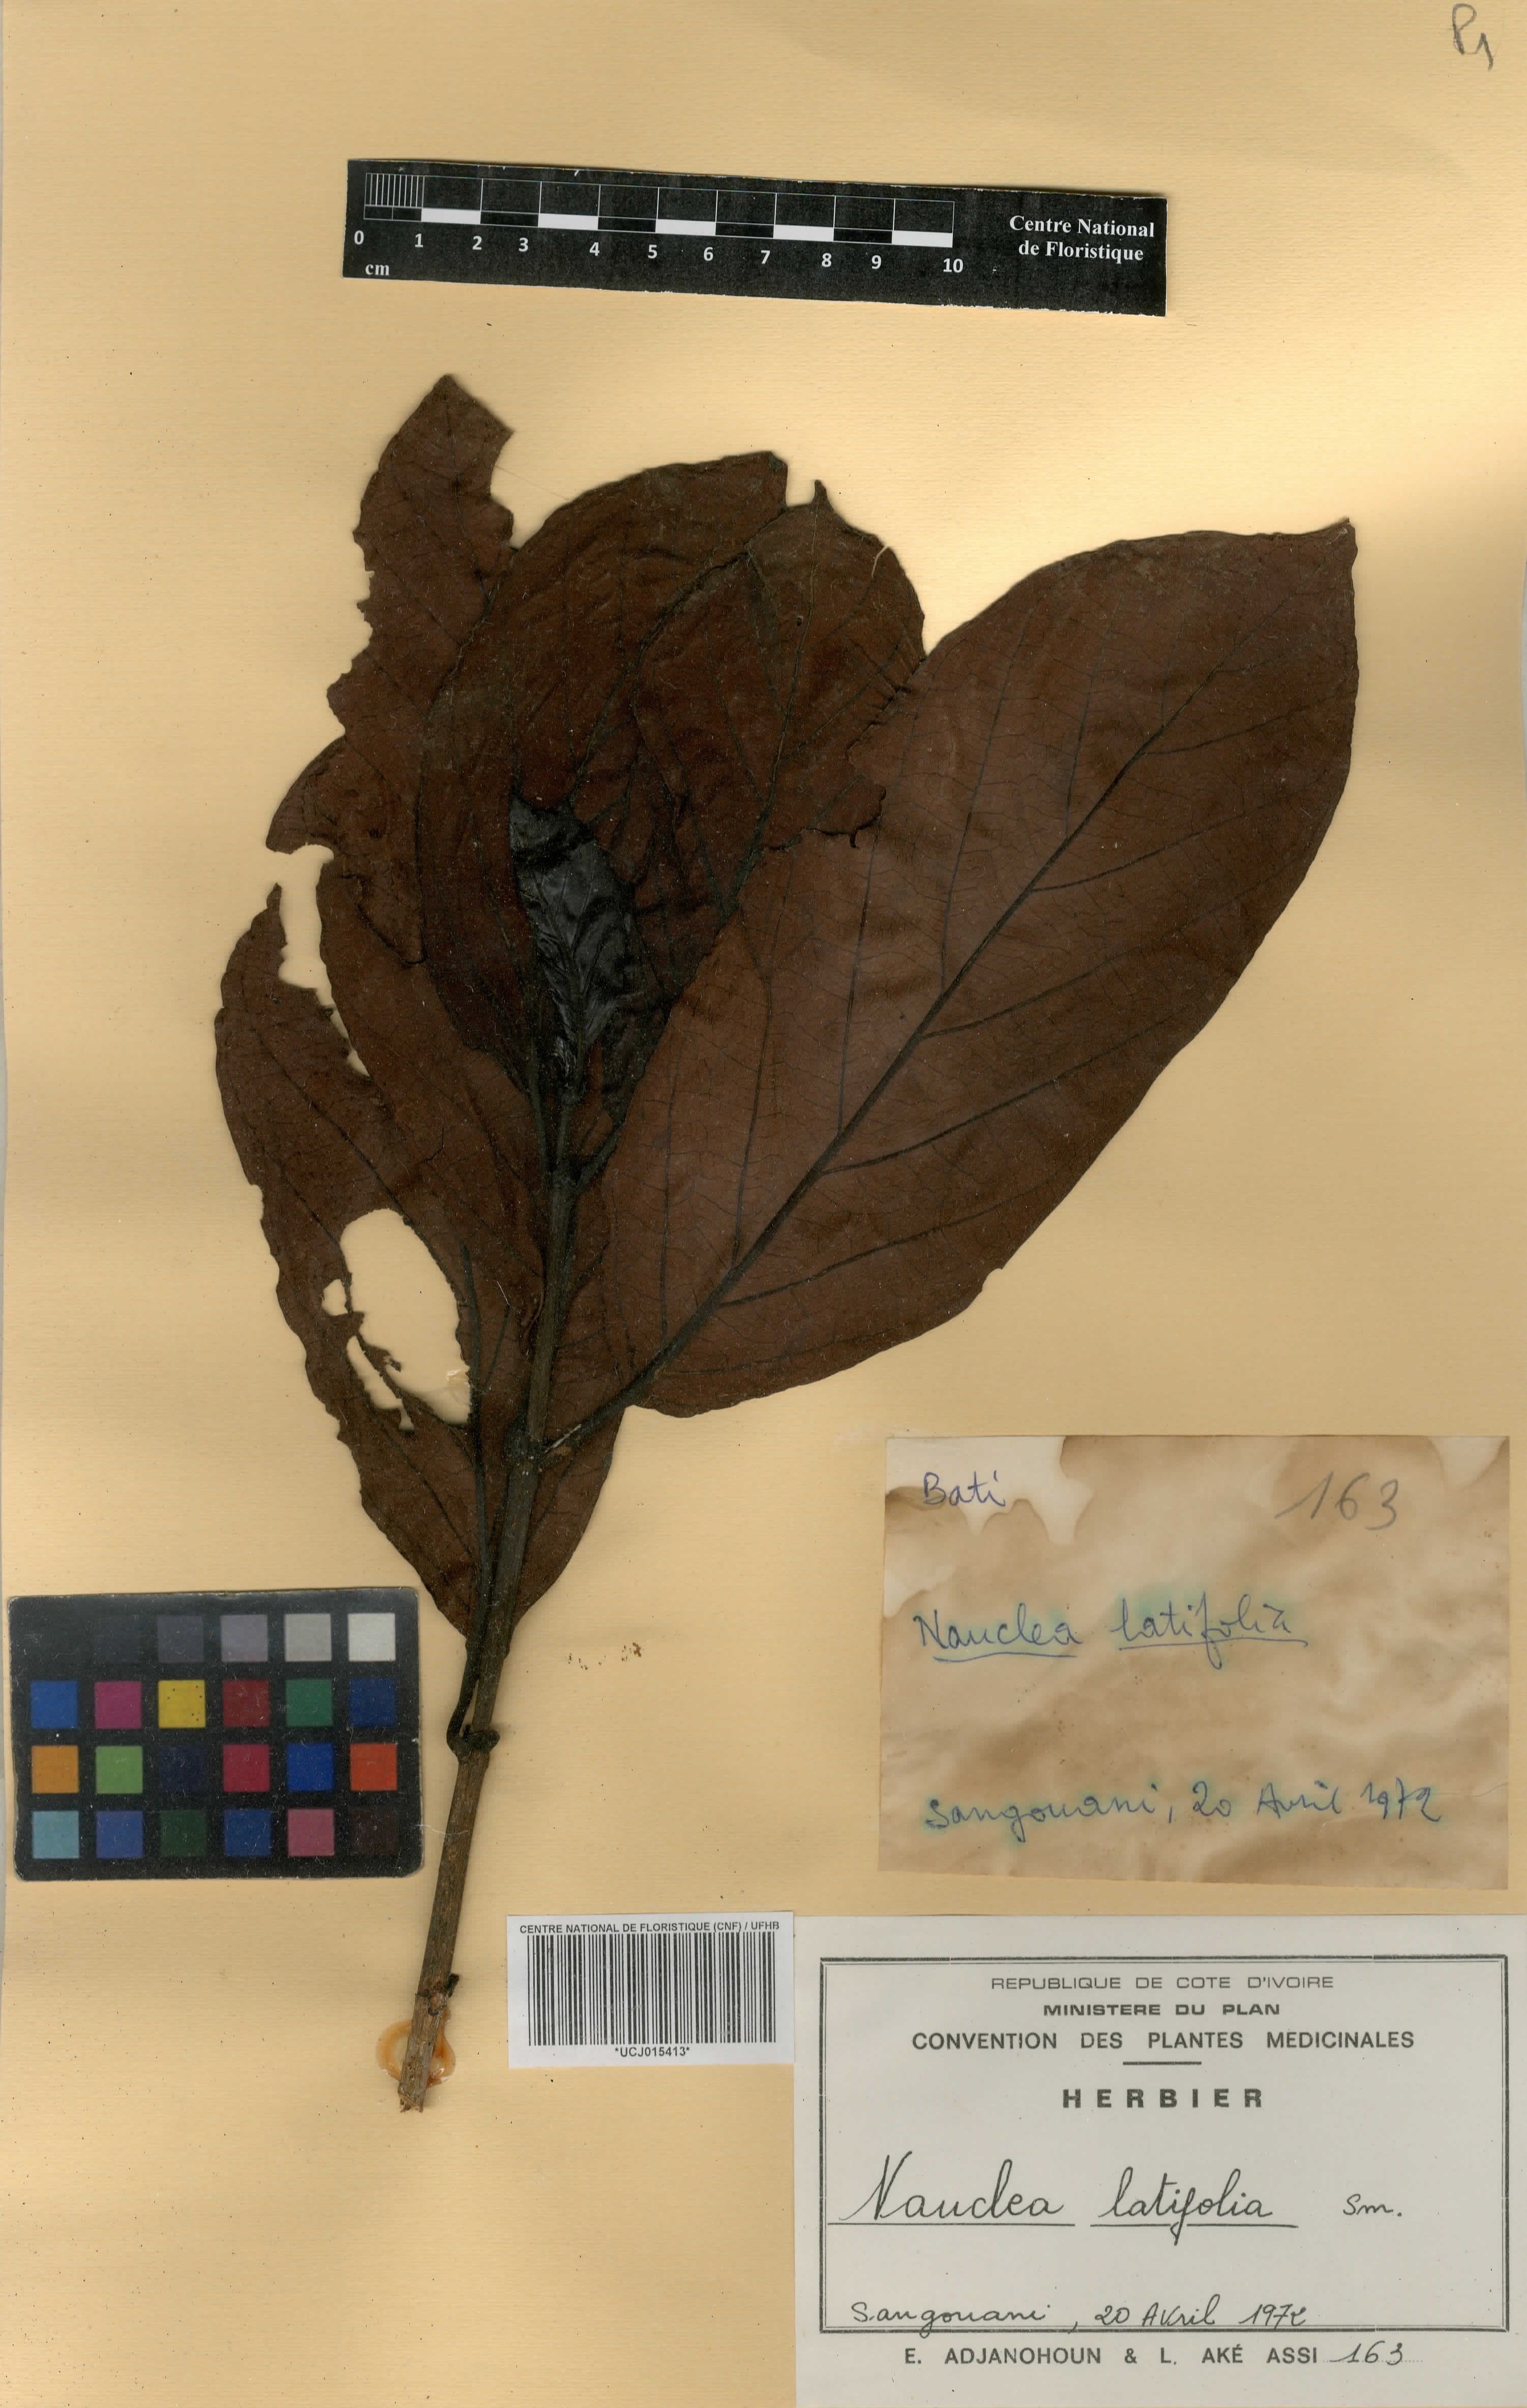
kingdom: Plantae
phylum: Tracheophyta
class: Magnoliopsida
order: Gentianales
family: Rubiaceae
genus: Nauclea
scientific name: Nauclea latifolia
